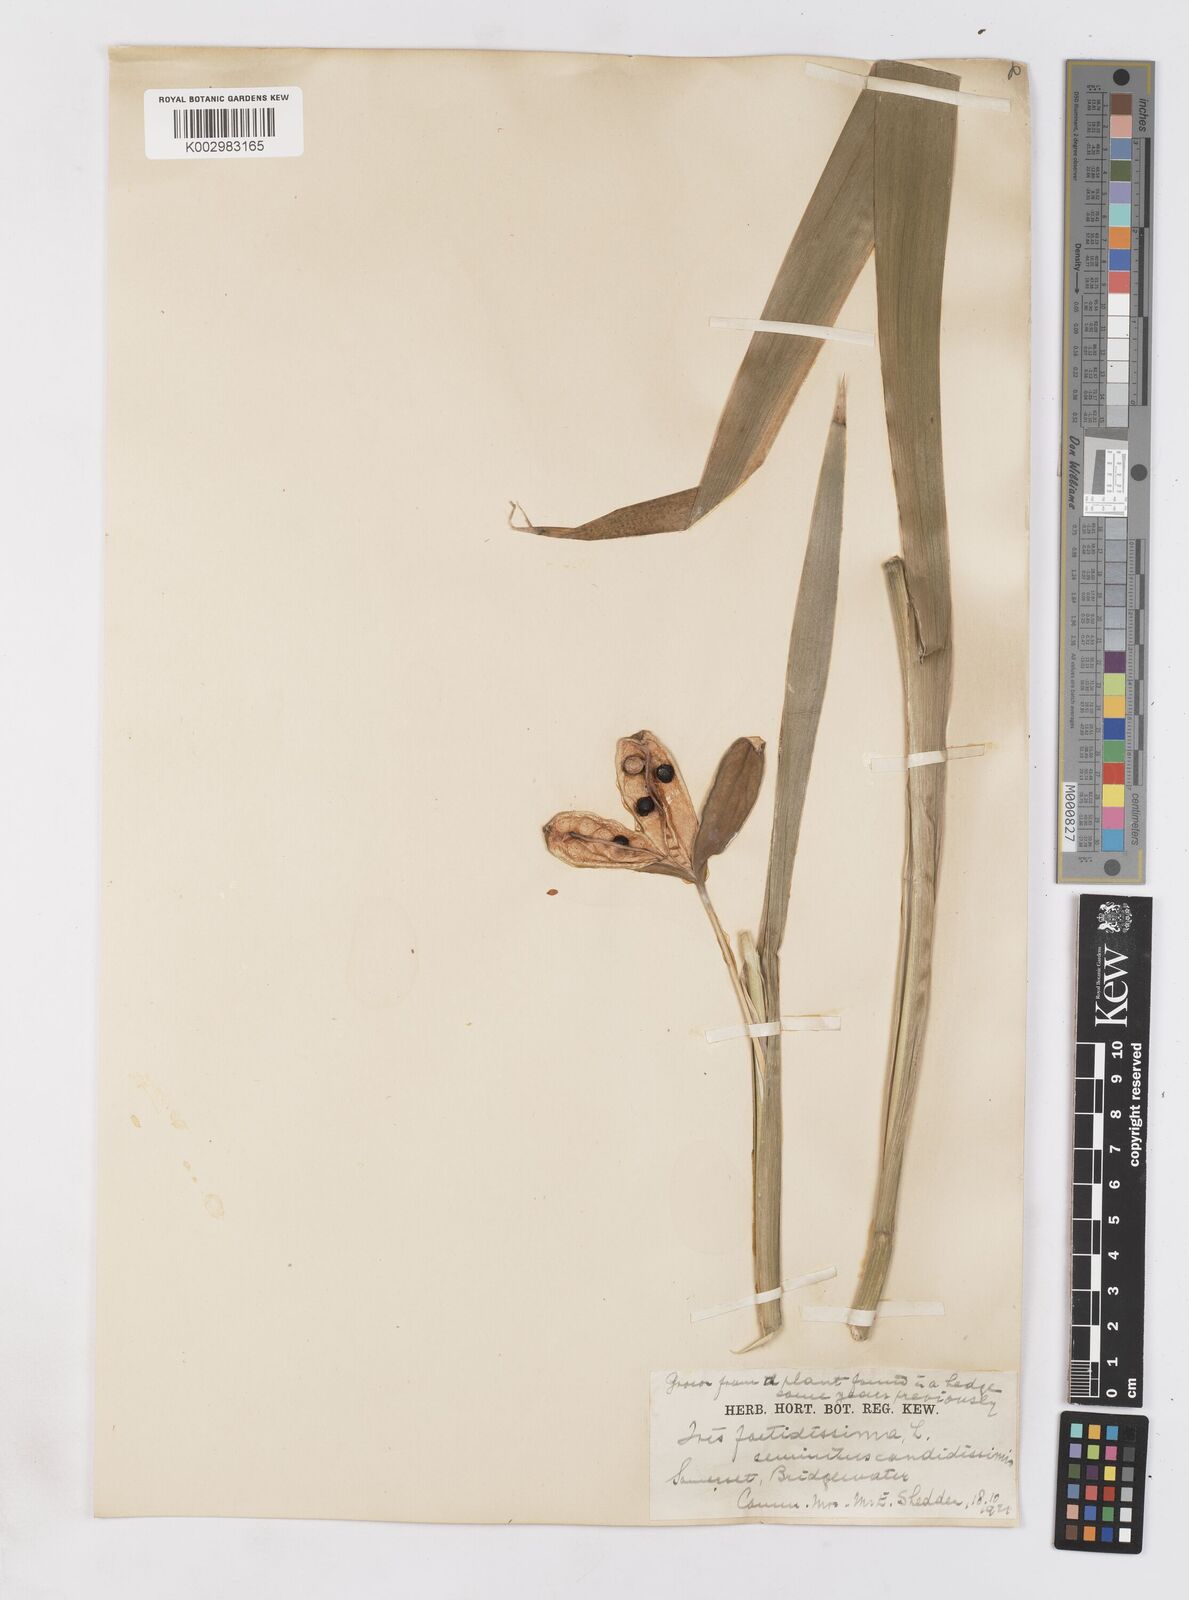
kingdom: Plantae
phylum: Tracheophyta
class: Liliopsida
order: Asparagales
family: Iridaceae
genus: Iris
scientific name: Iris foetidissima
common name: Stinking iris
